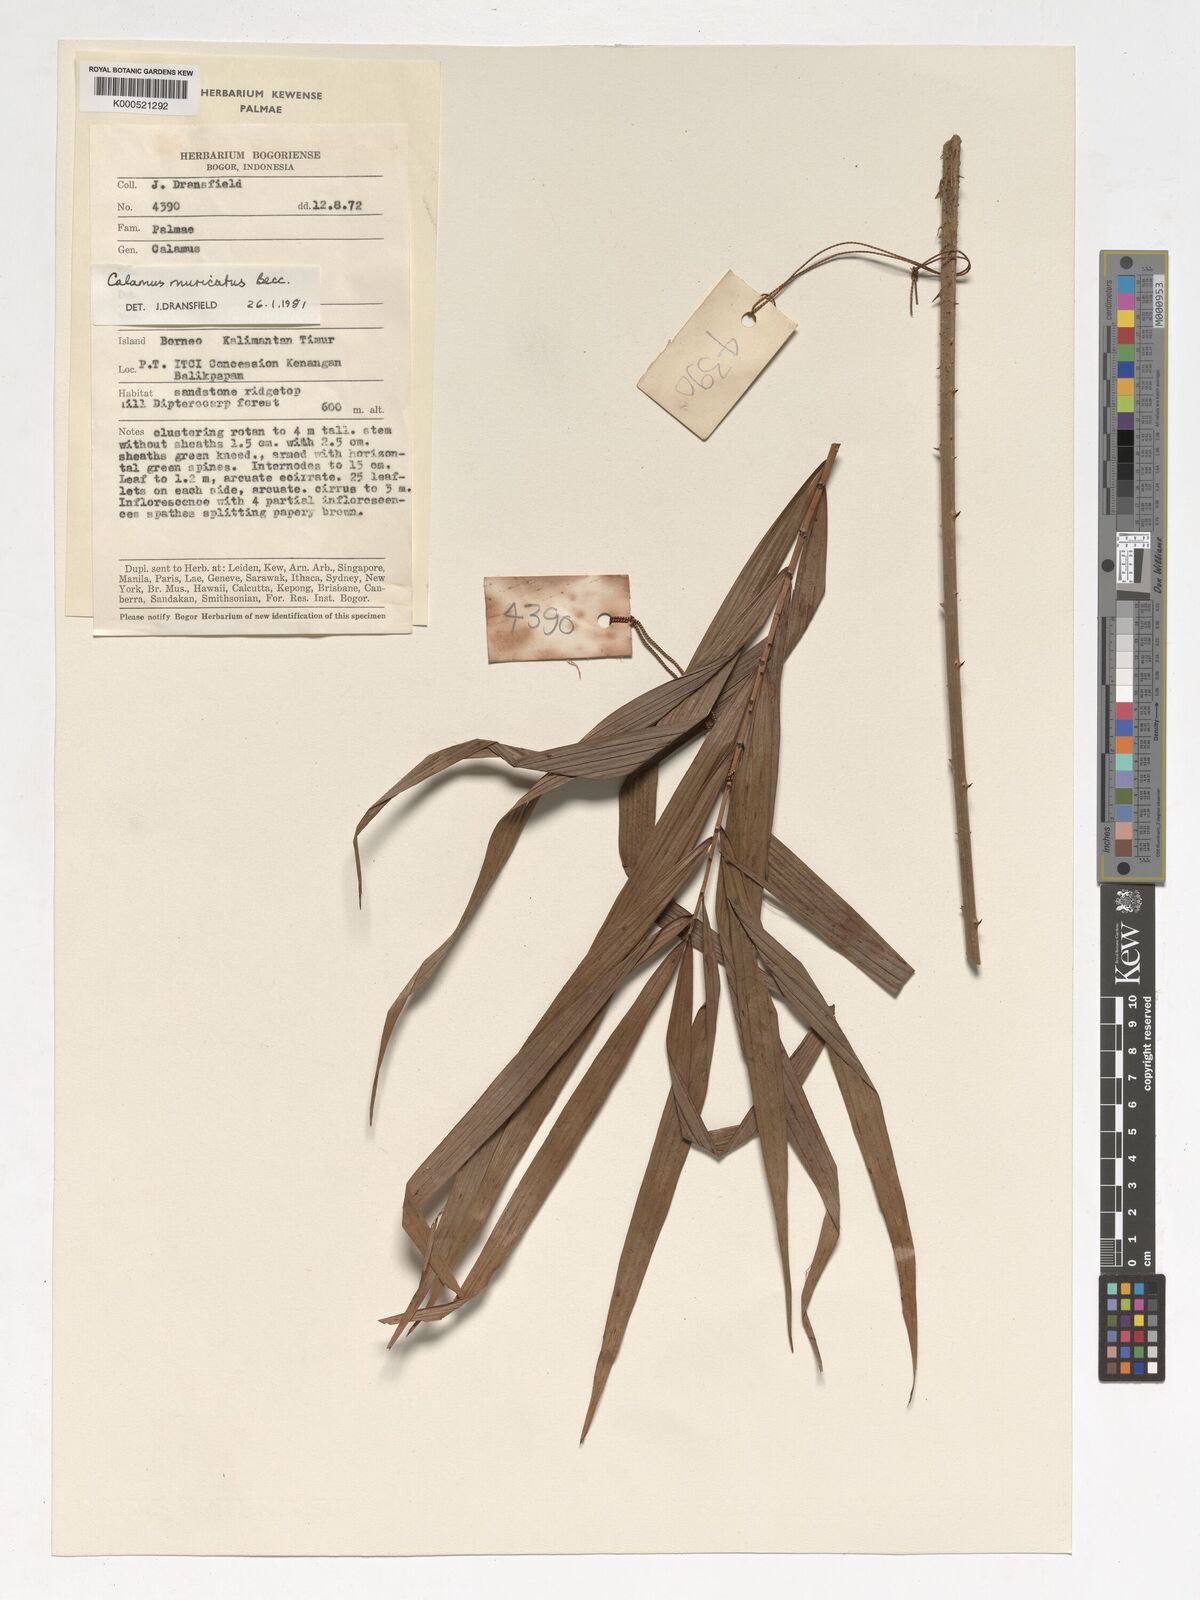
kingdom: Plantae
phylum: Tracheophyta
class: Liliopsida
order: Arecales
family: Arecaceae
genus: Calamus
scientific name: Calamus muricatus
